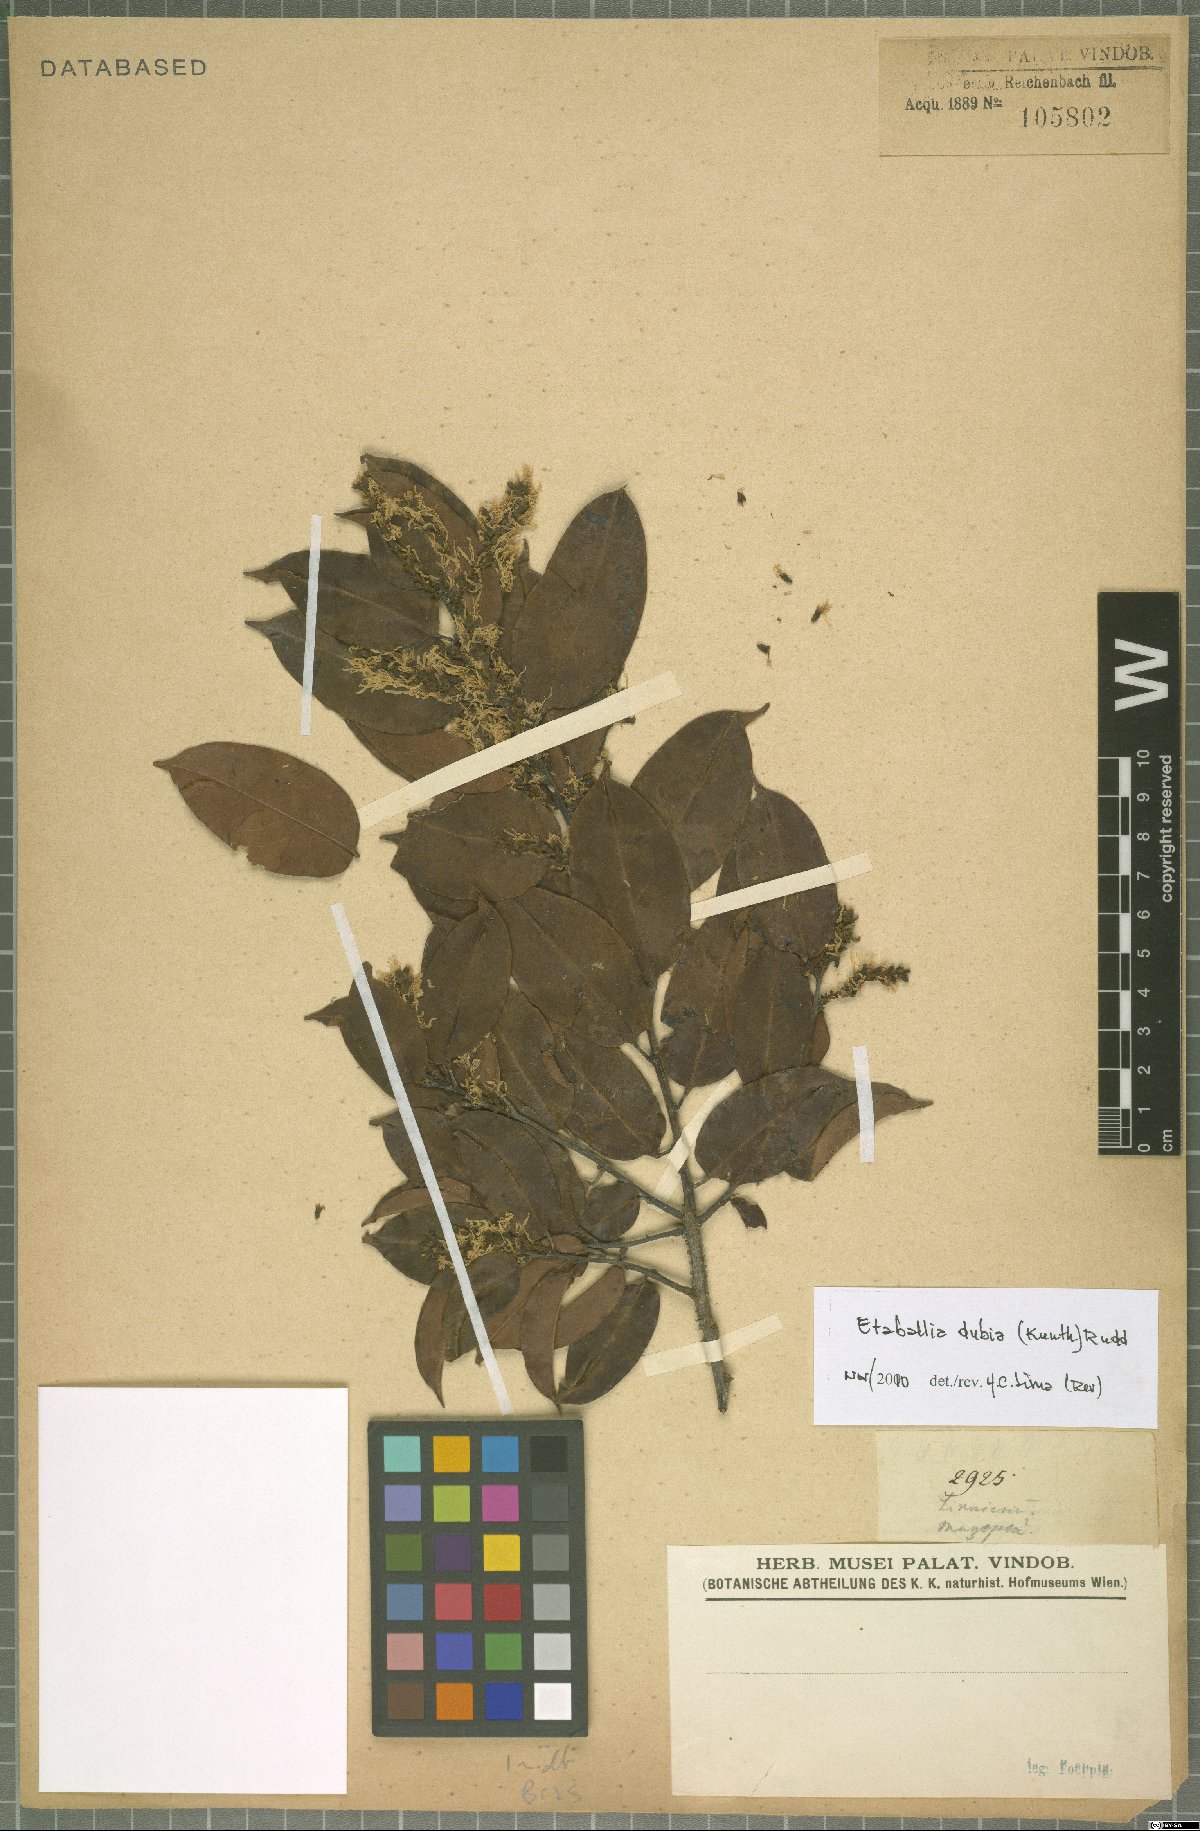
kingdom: Plantae
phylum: Tracheophyta
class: Magnoliopsida
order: Fabales
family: Fabaceae
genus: Pterocarpus
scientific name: Pterocarpus dubius
